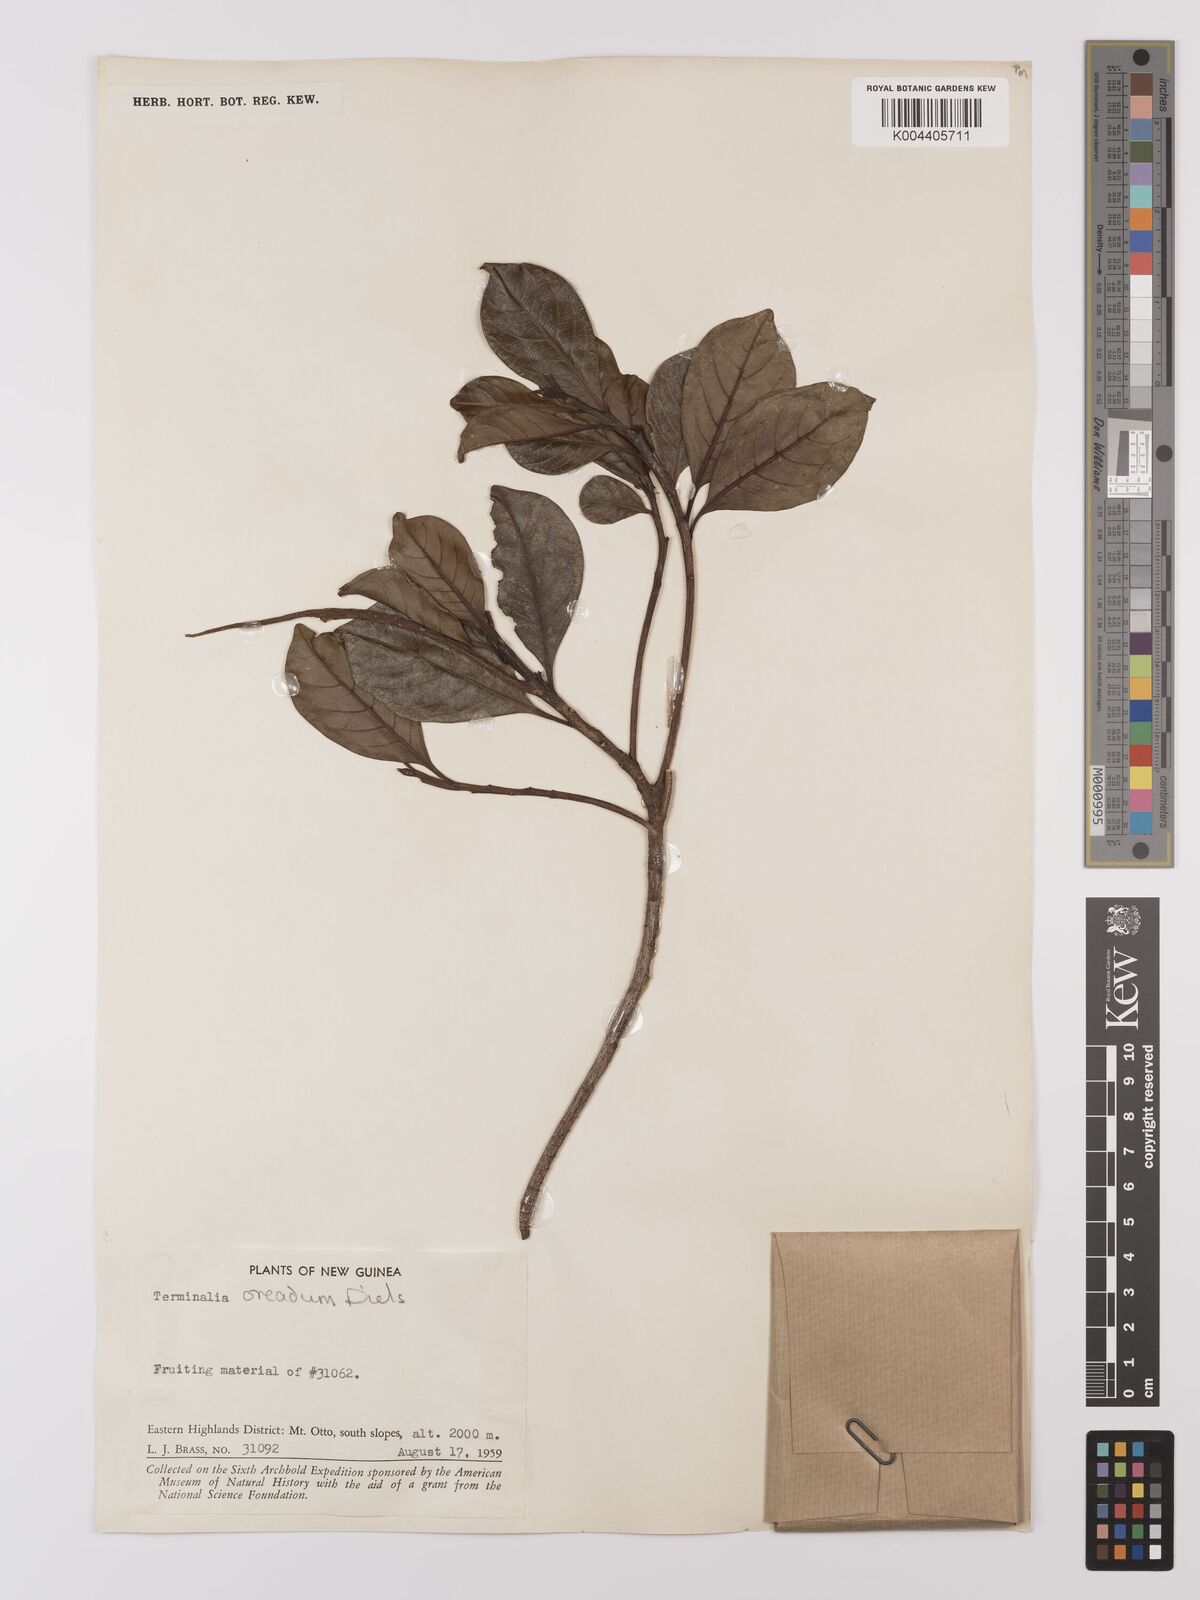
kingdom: Plantae
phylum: Tracheophyta
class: Magnoliopsida
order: Myrtales
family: Combretaceae
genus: Terminalia
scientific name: Terminalia oreadum
